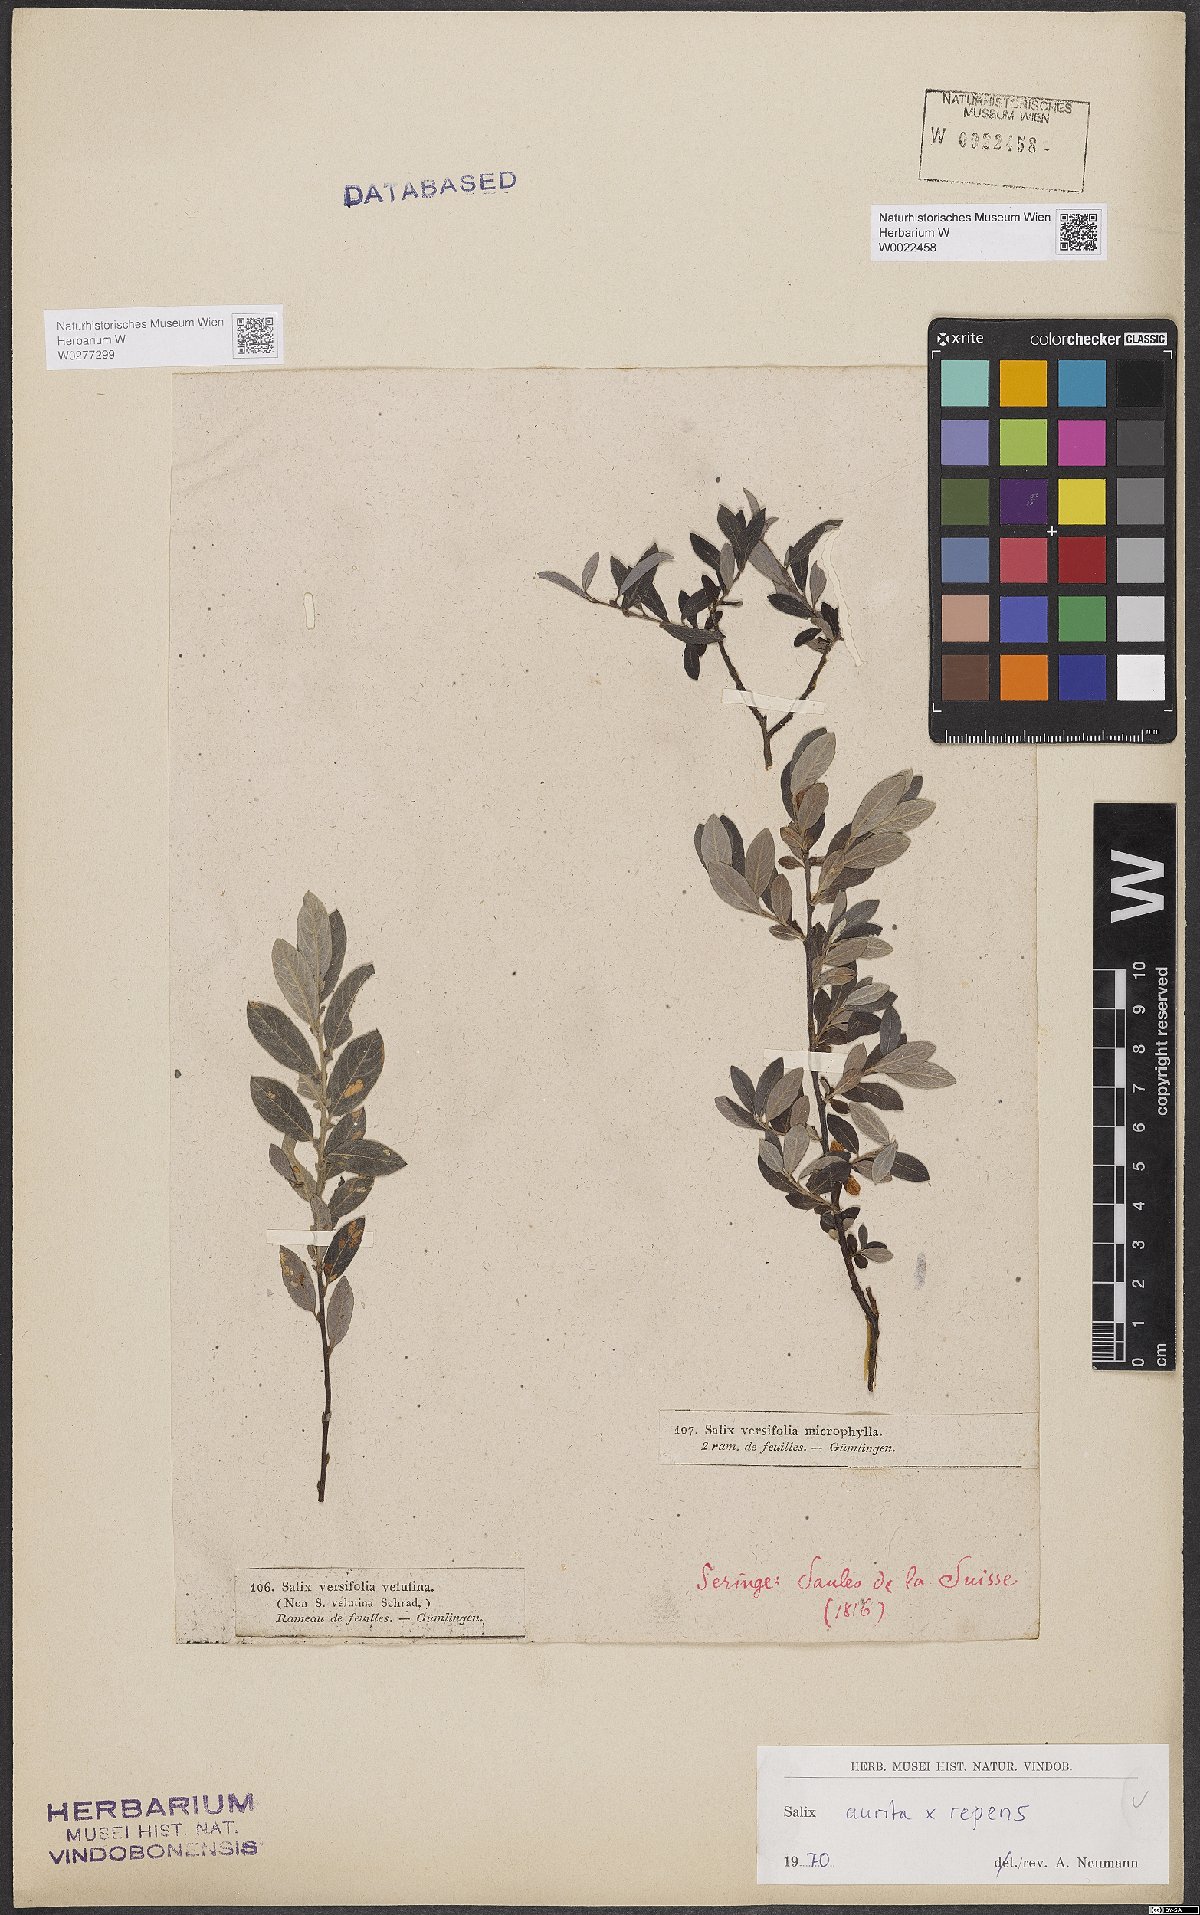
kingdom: Plantae
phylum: Tracheophyta
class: Magnoliopsida
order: Malpighiales
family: Salicaceae
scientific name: Salicaceae
